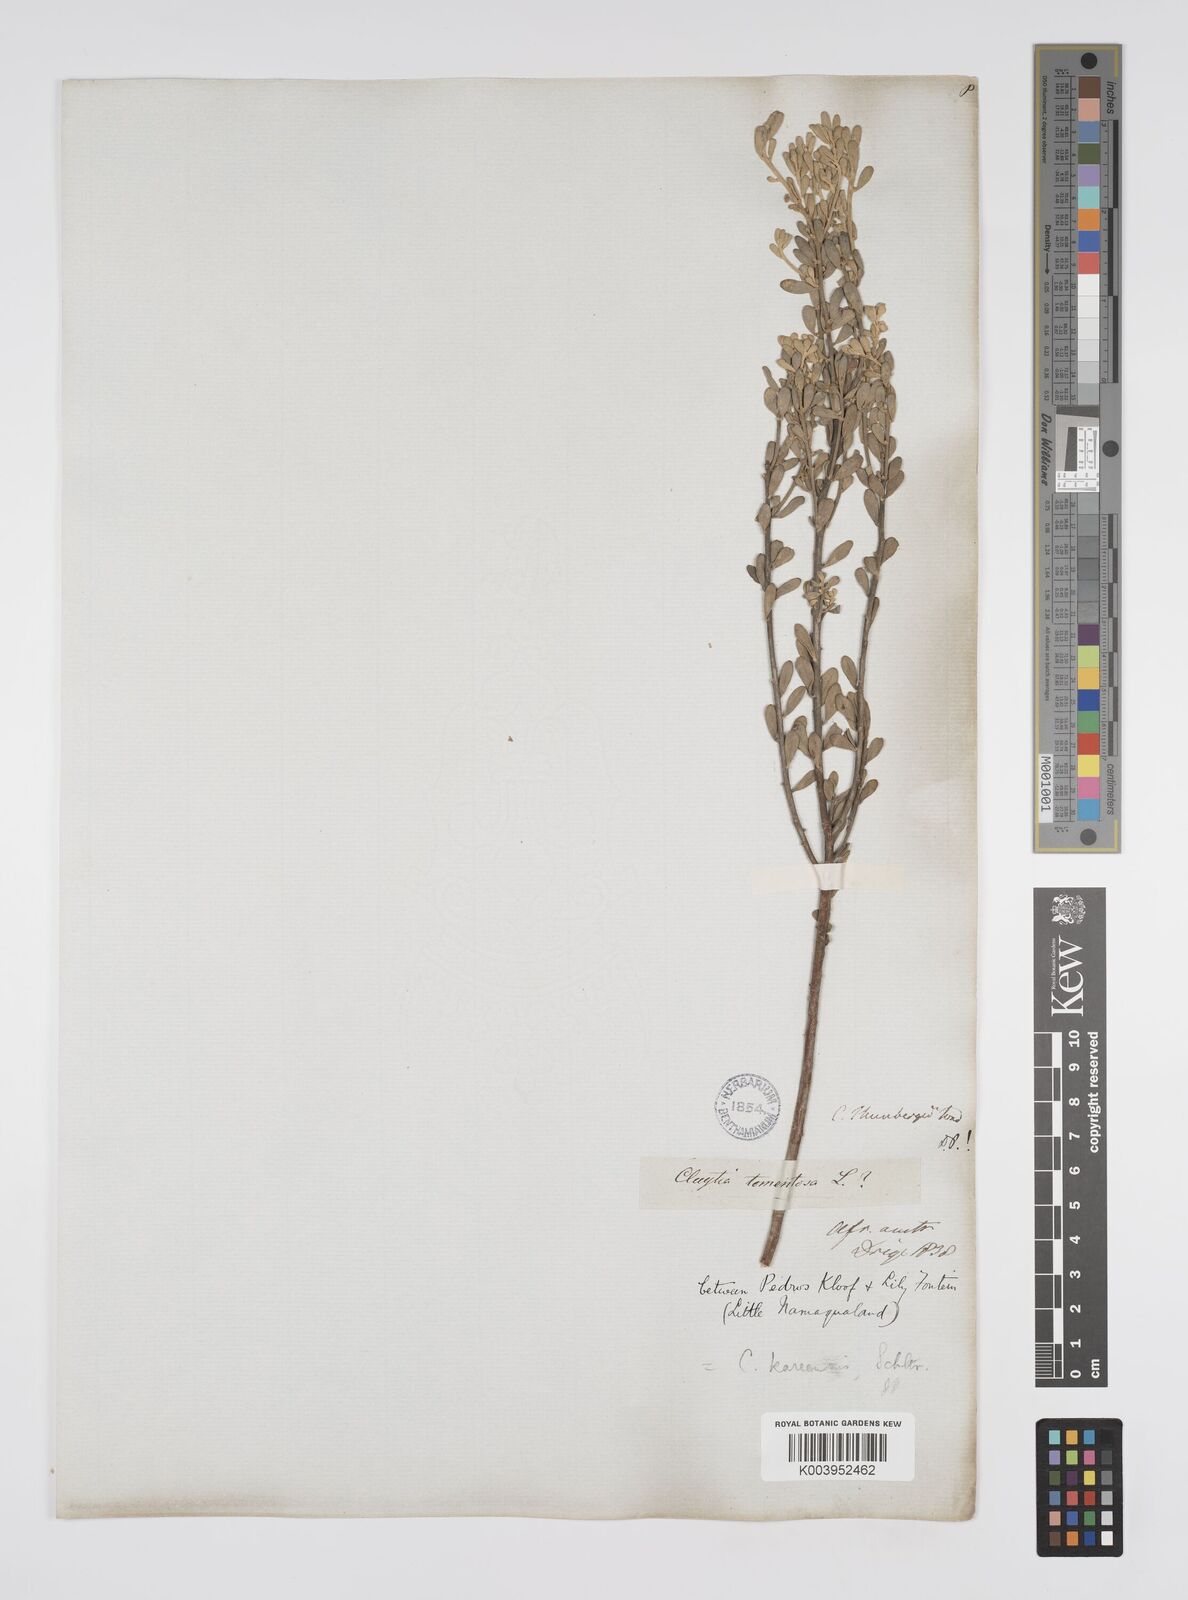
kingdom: Plantae
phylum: Tracheophyta
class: Magnoliopsida
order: Malpighiales
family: Peraceae
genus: Clutia
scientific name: Clutia thunbergii
